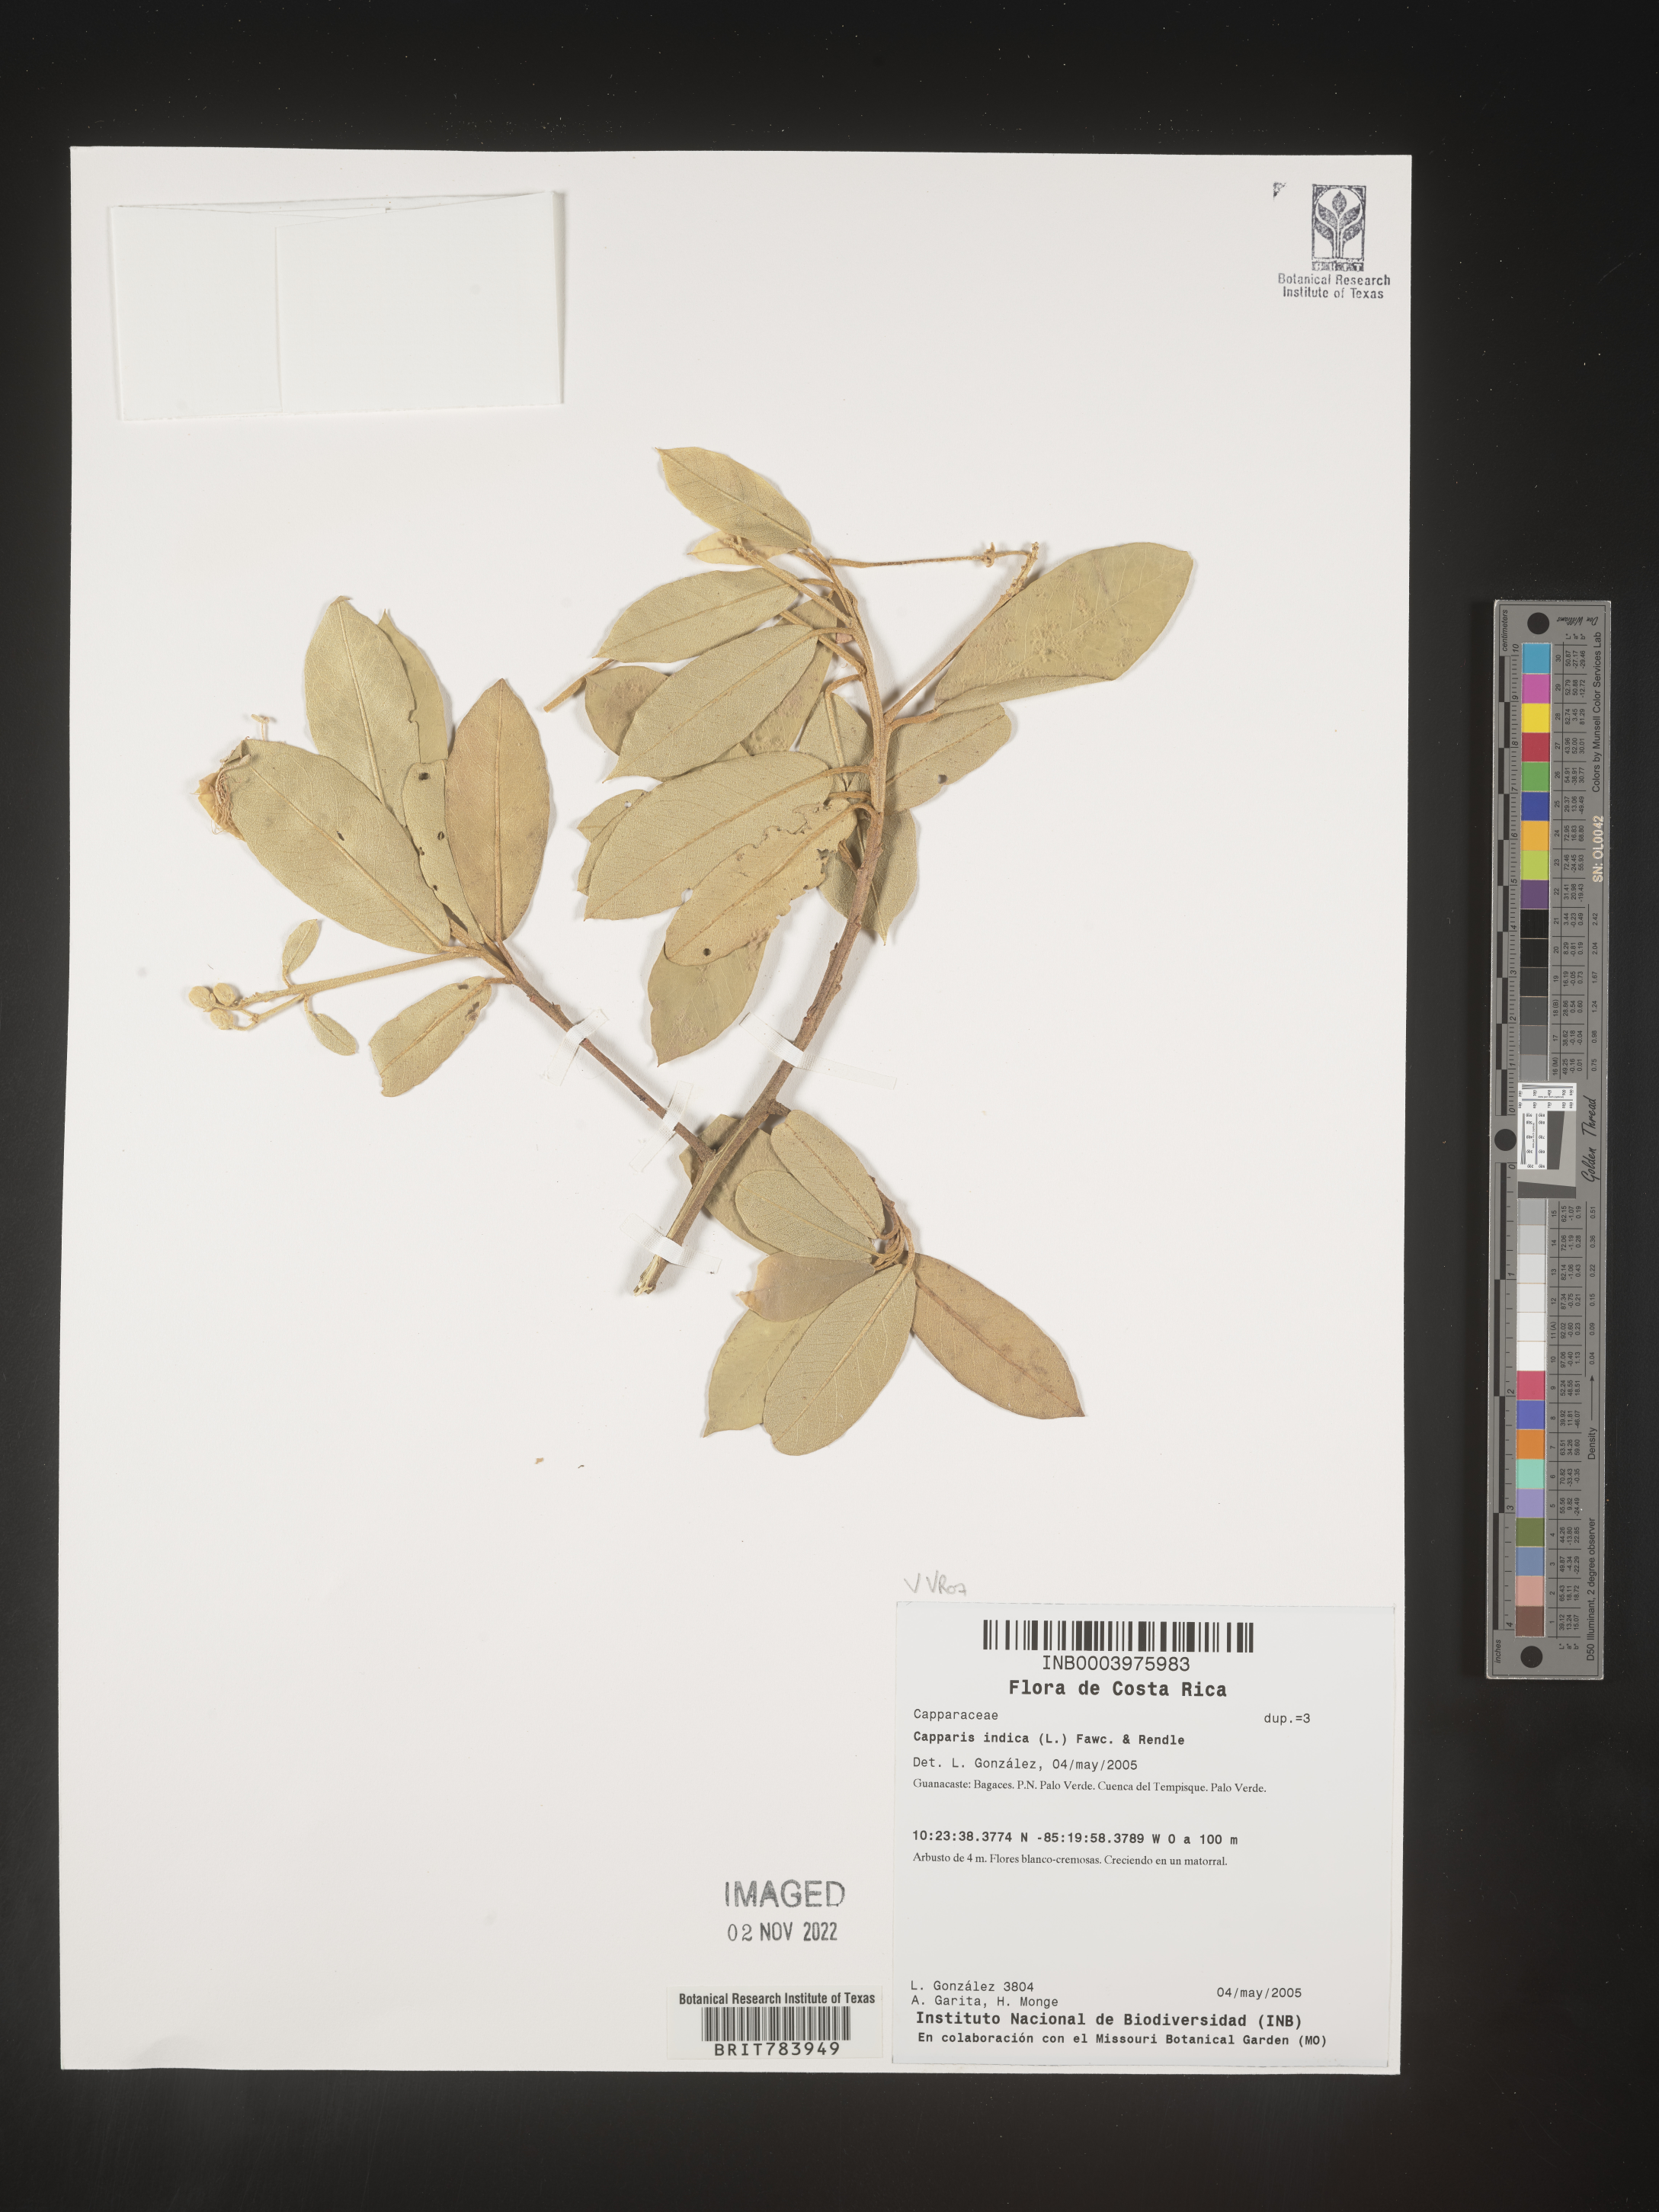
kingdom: Plantae
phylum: Tracheophyta
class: Magnoliopsida
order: Brassicales
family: Capparaceae
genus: Capparis
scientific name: Capparis
